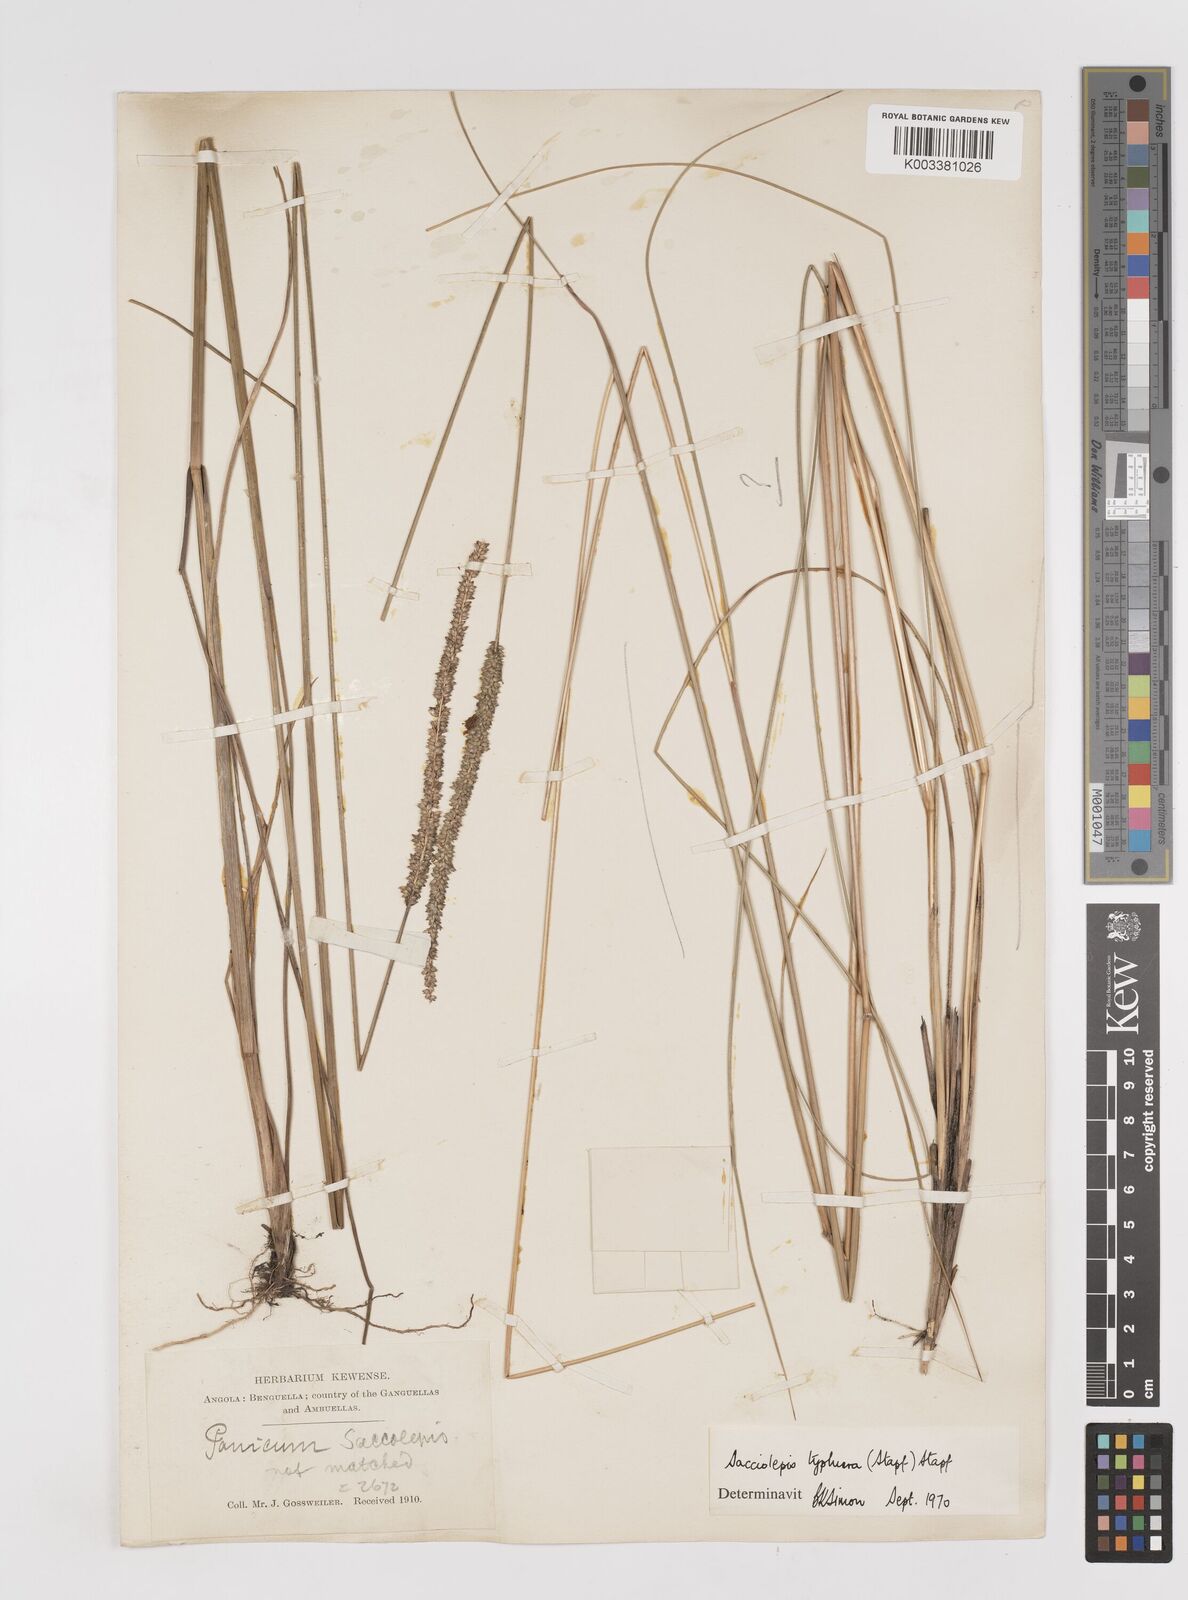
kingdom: Plantae
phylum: Tracheophyta
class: Liliopsida
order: Poales
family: Poaceae
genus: Sacciolepis
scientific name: Sacciolepis typhura
